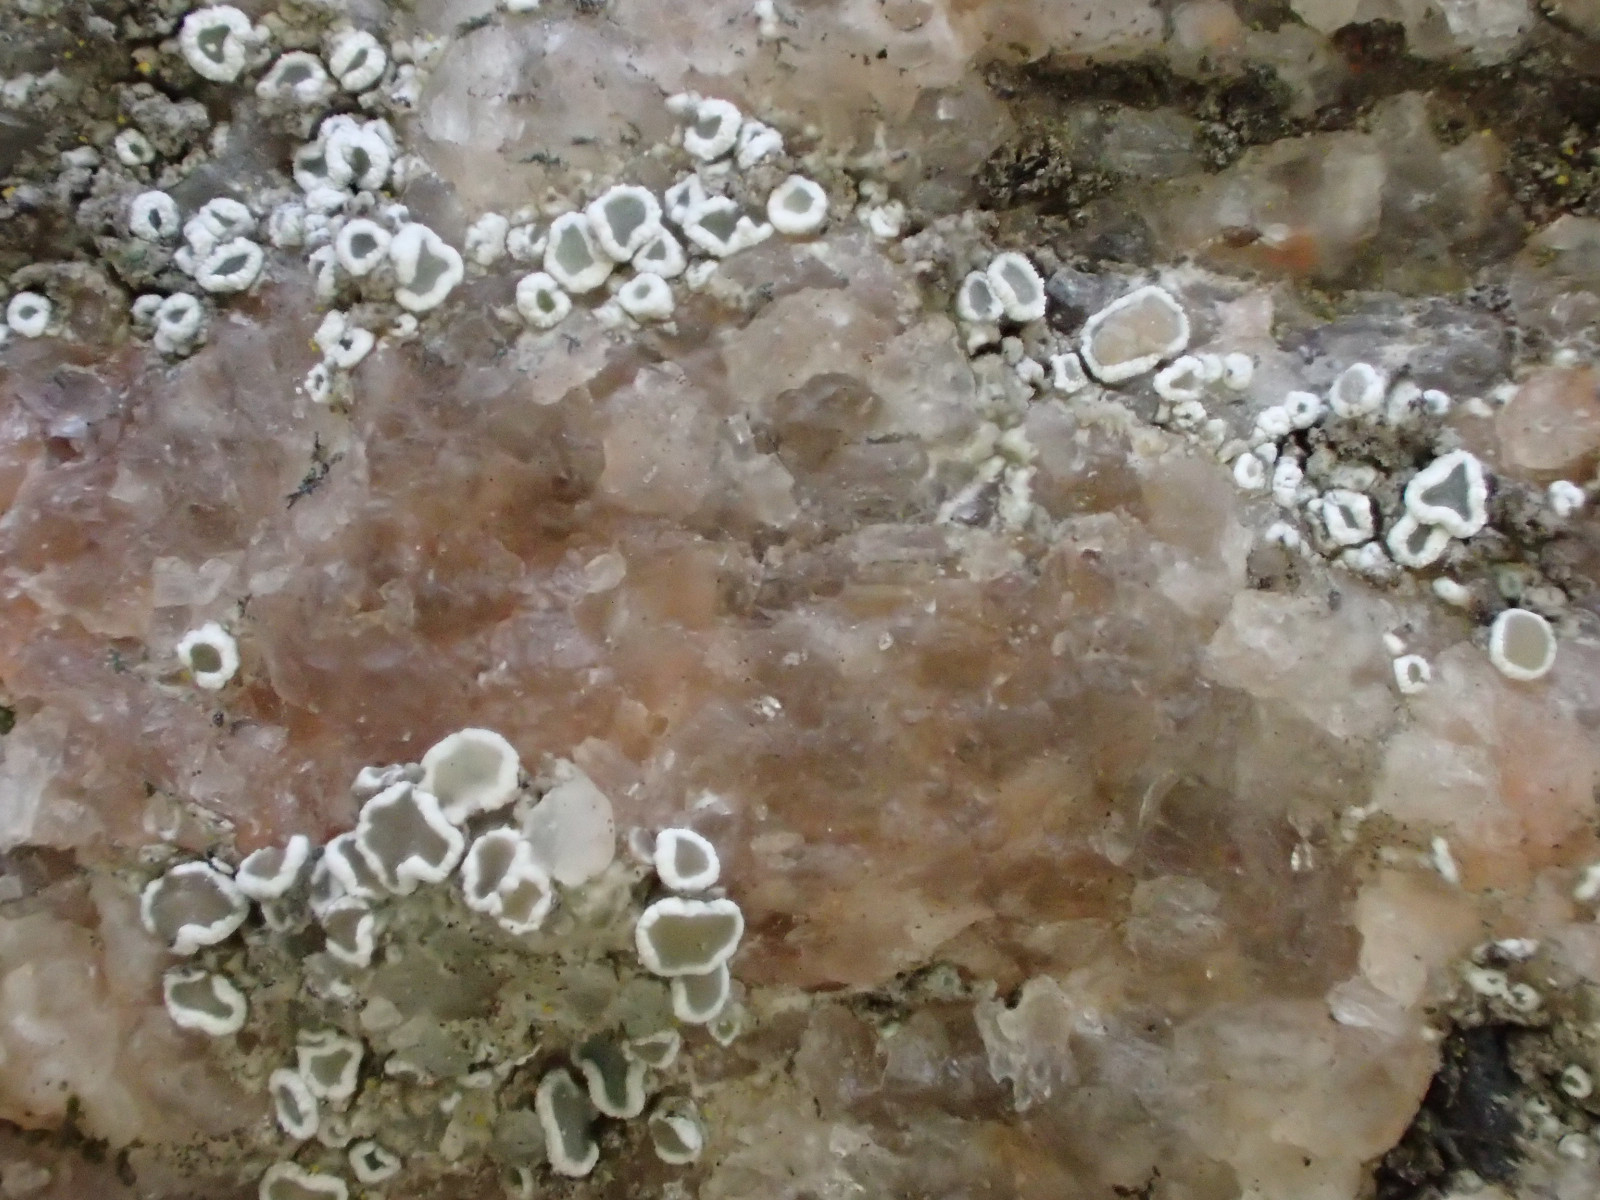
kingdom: Fungi
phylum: Ascomycota
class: Lecanoromycetes
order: Lecanorales
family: Lecanoraceae
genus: Polyozosia
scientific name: Polyozosia dispersa
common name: spredt kantskivelav
